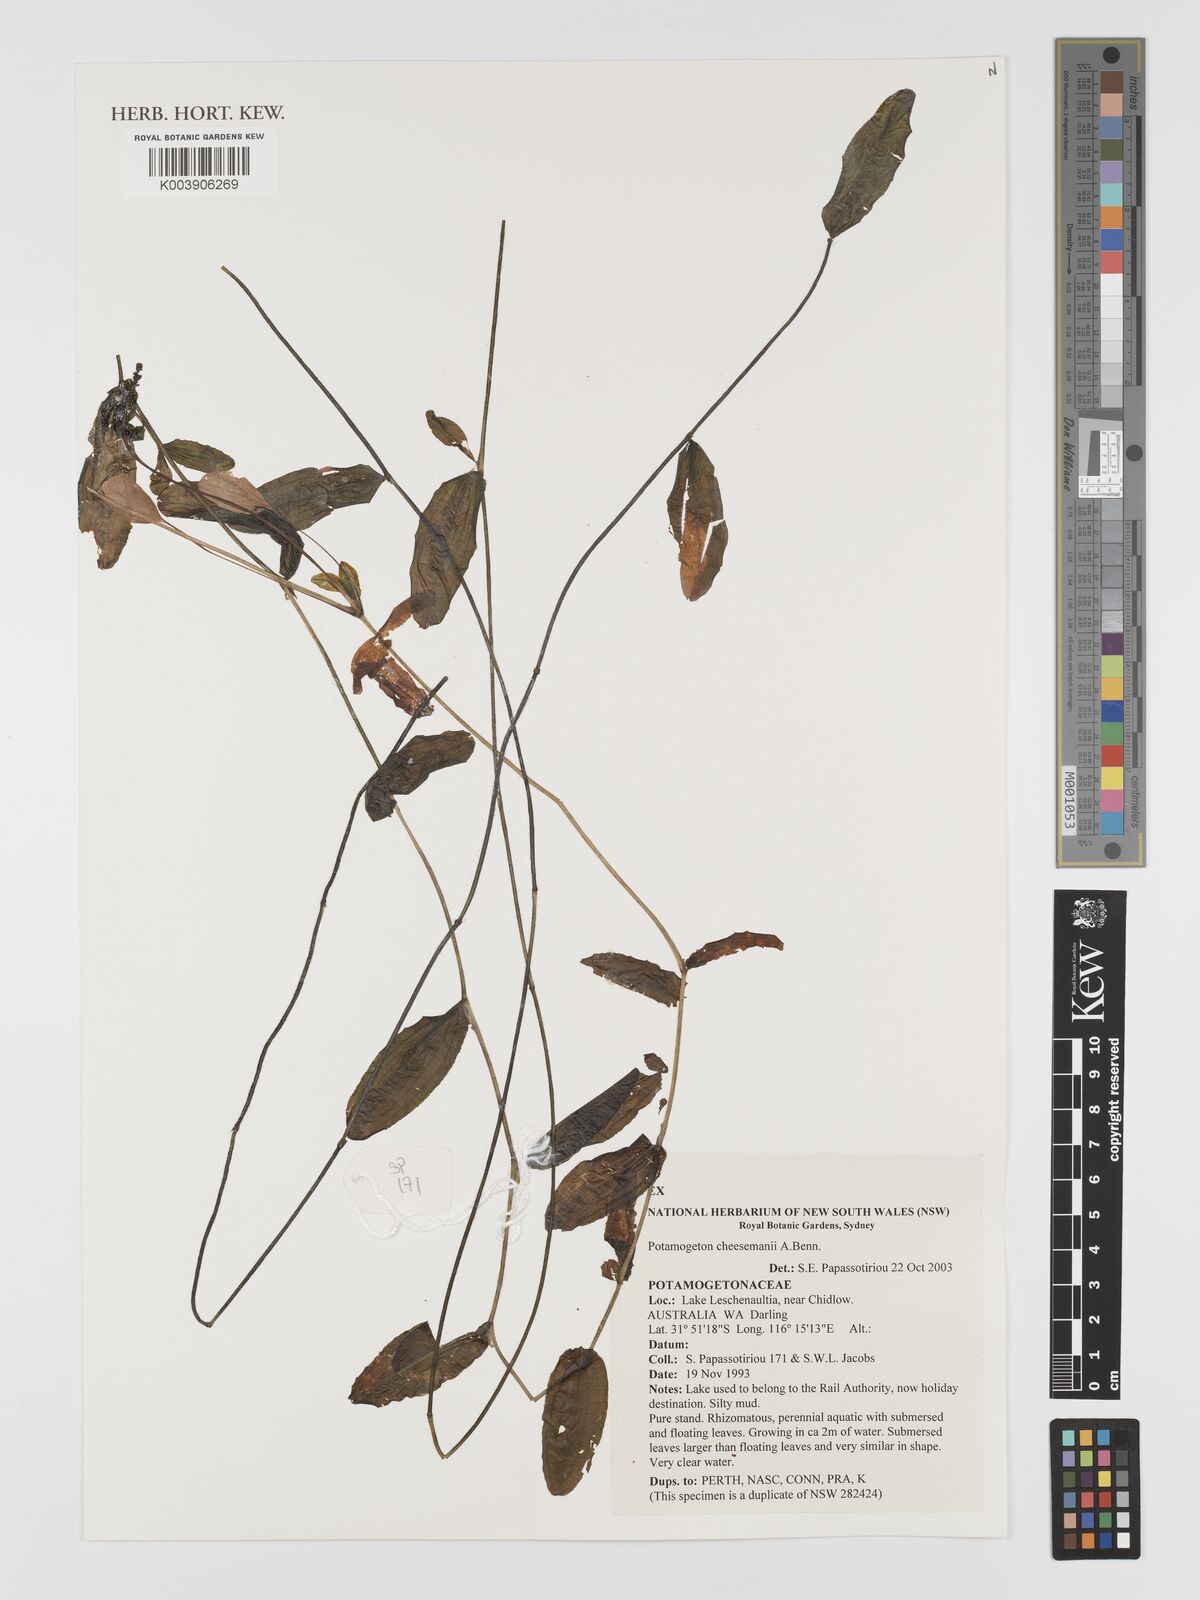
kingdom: Plantae
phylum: Tracheophyta
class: Liliopsida
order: Alismatales
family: Potamogetonaceae
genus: Potamogeton
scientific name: Potamogeton cheesemanii
